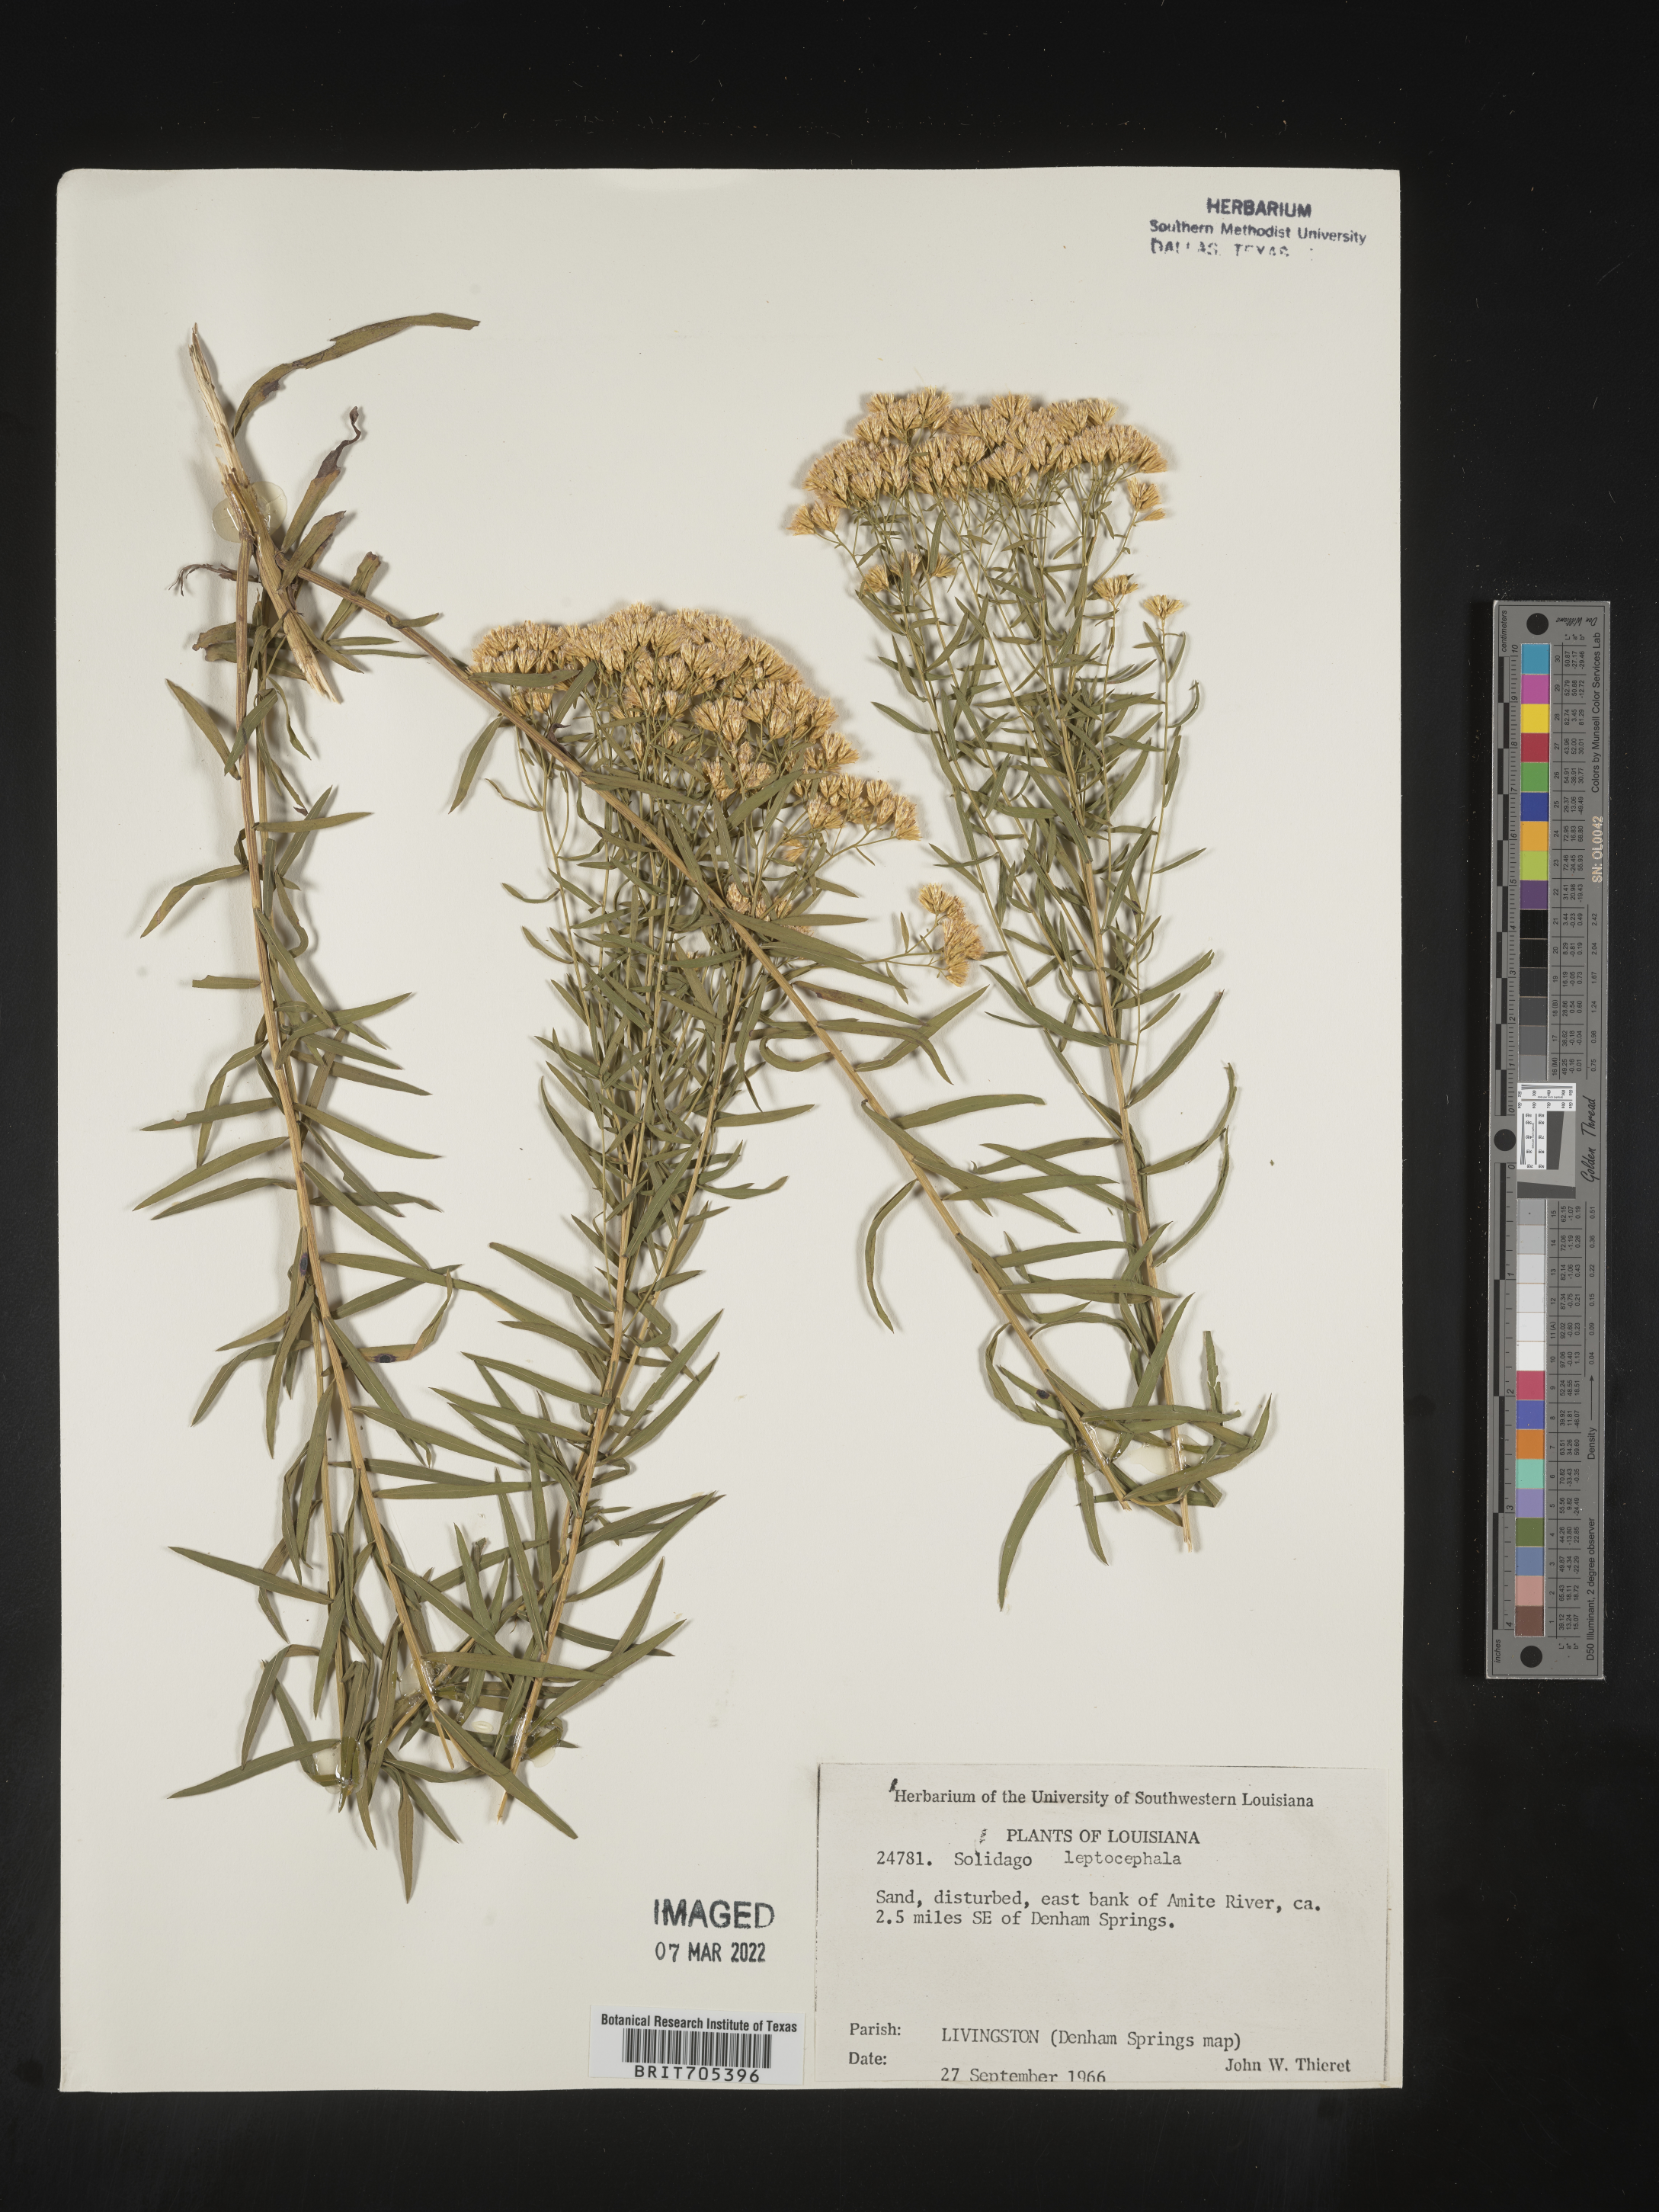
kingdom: Plantae
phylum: Tracheophyta
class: Magnoliopsida
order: Asterales
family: Asteraceae
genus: Euthamia
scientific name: Euthamia leptocephala
